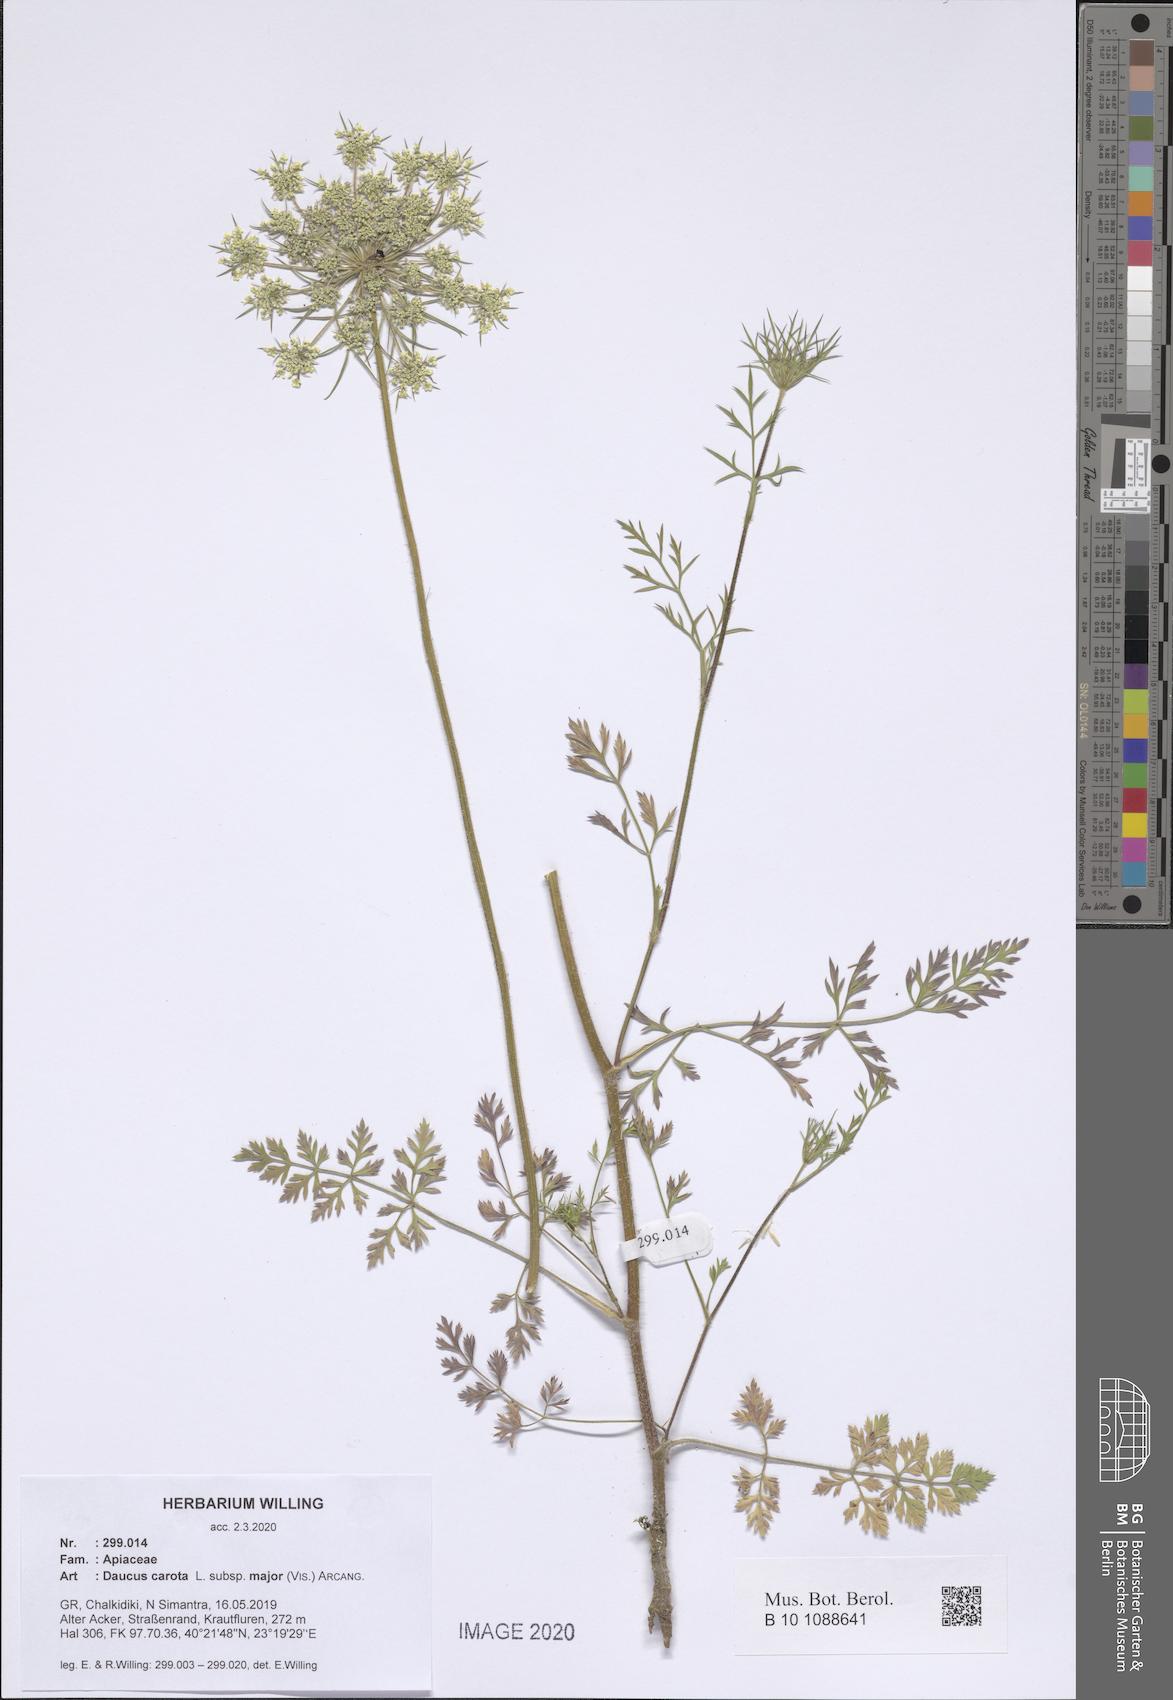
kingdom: Plantae
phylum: Tracheophyta
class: Magnoliopsida
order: Apiales
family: Apiaceae
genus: Daucus
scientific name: Daucus carota
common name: Wild carrot
